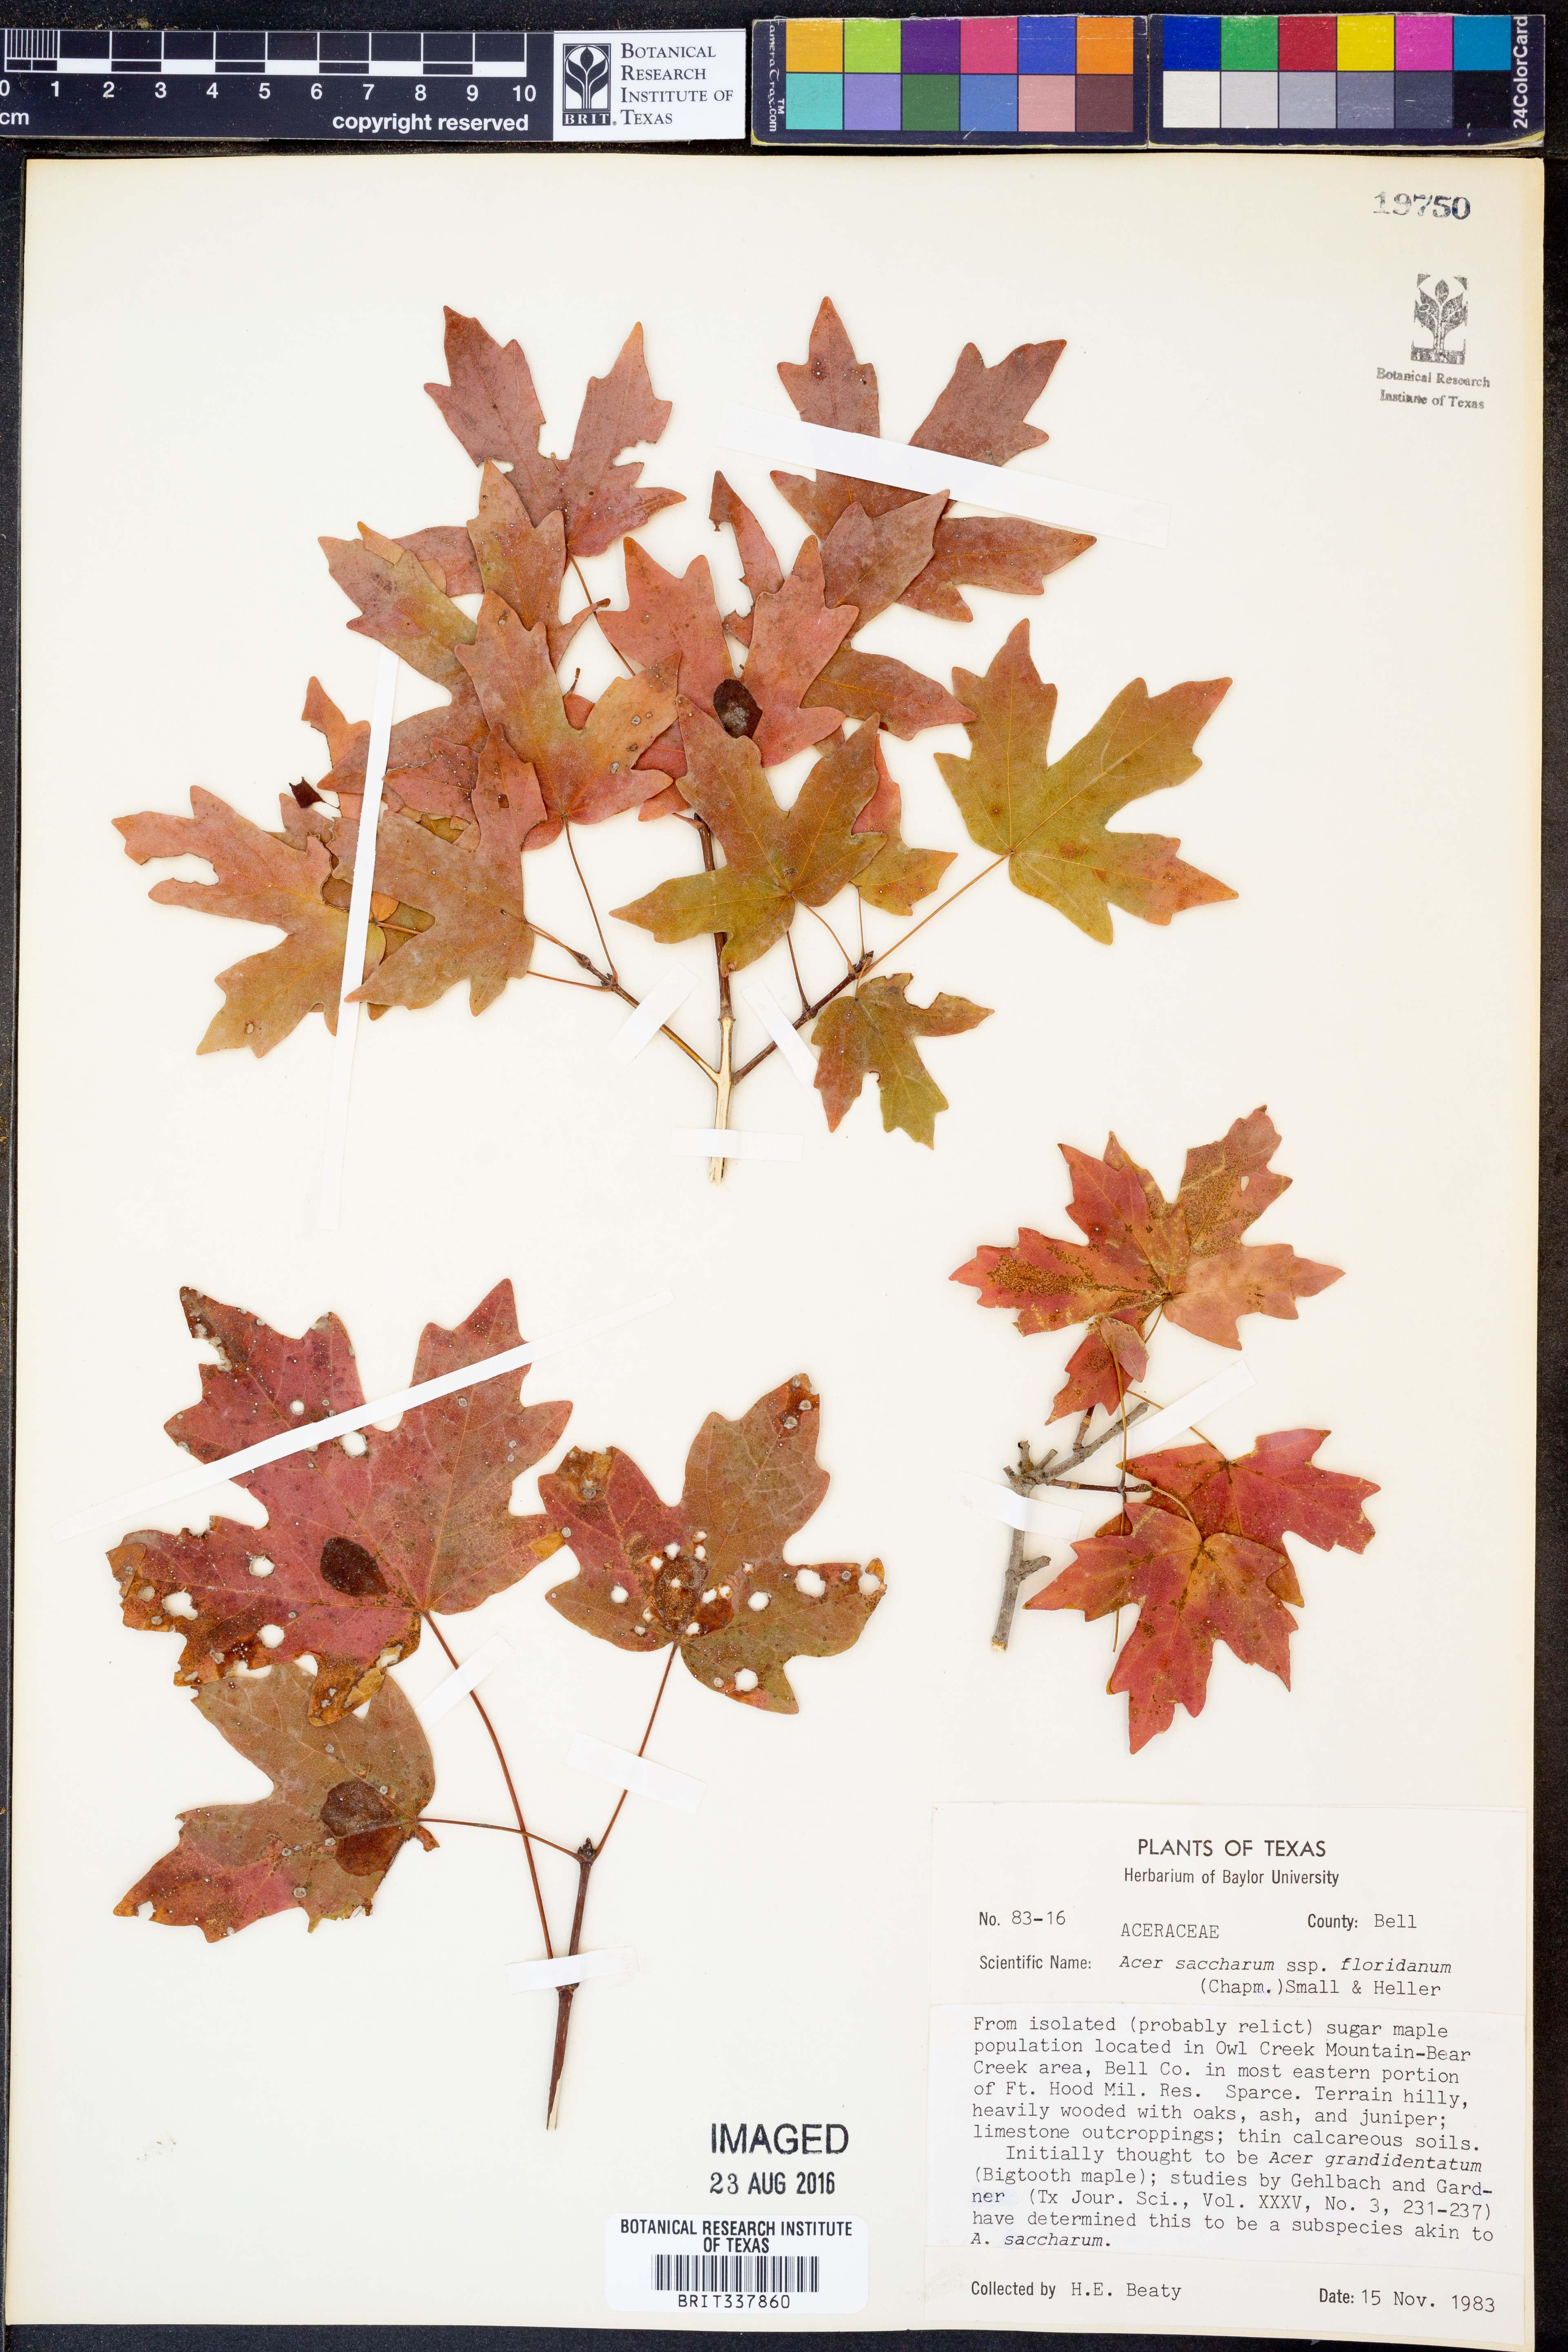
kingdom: Plantae
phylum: Tracheophyta
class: Magnoliopsida
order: Sapindales
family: Sapindaceae
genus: Acer
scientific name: Acer barbatum
